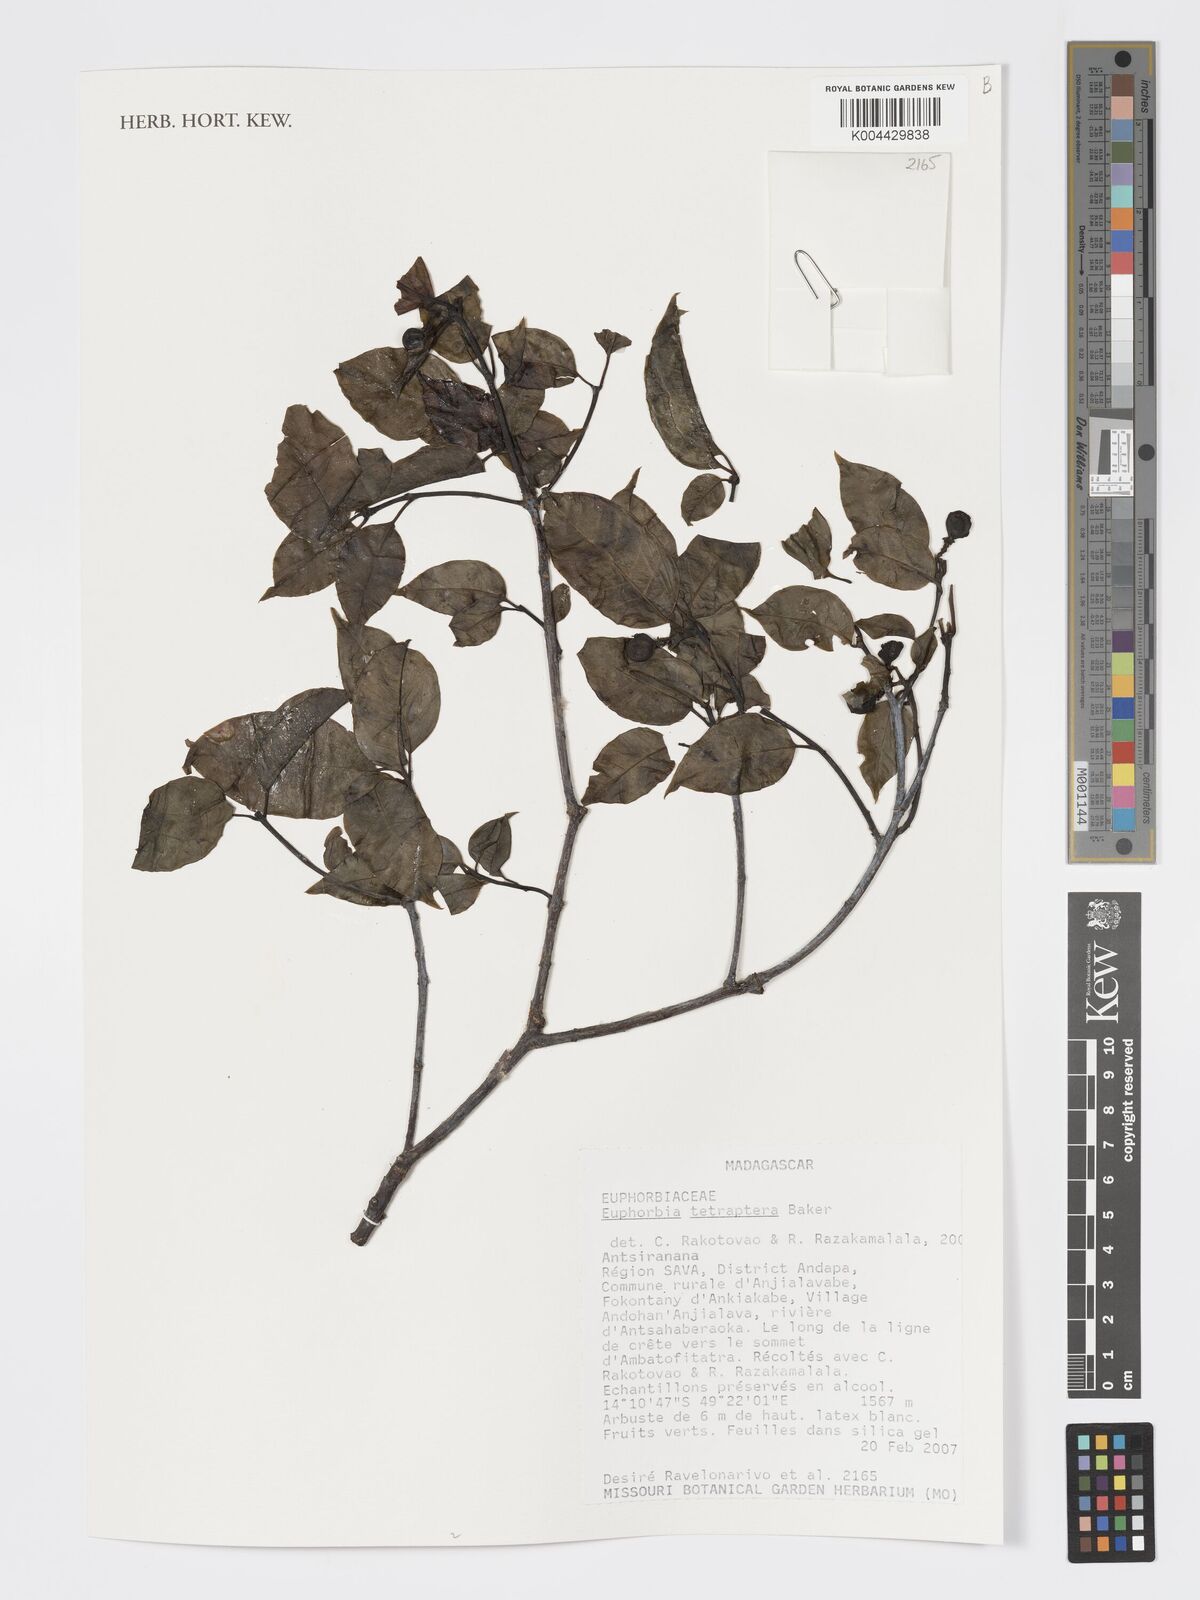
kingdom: Plantae
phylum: Tracheophyta
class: Magnoliopsida
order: Malpighiales
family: Euphorbiaceae
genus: Euphorbia
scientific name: Euphorbia tetraptera
